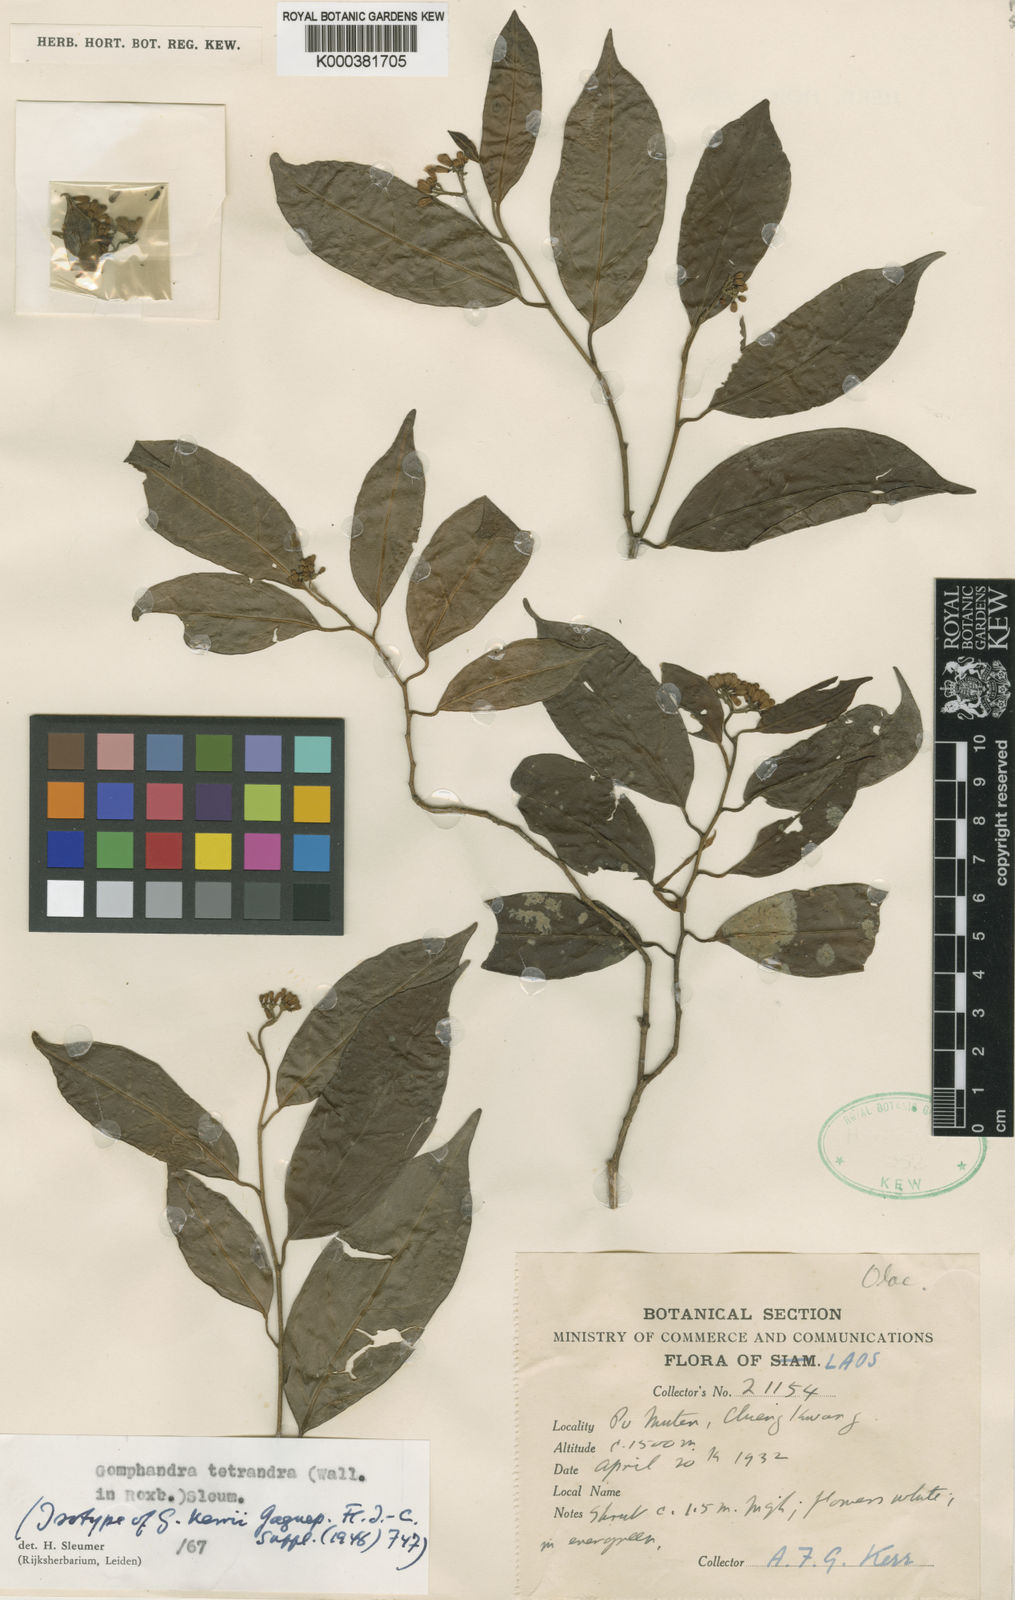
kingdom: Plantae
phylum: Tracheophyta
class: Magnoliopsida
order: Cardiopteridales
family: Stemonuraceae
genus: Gomphandra
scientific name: Gomphandra tetrandra
